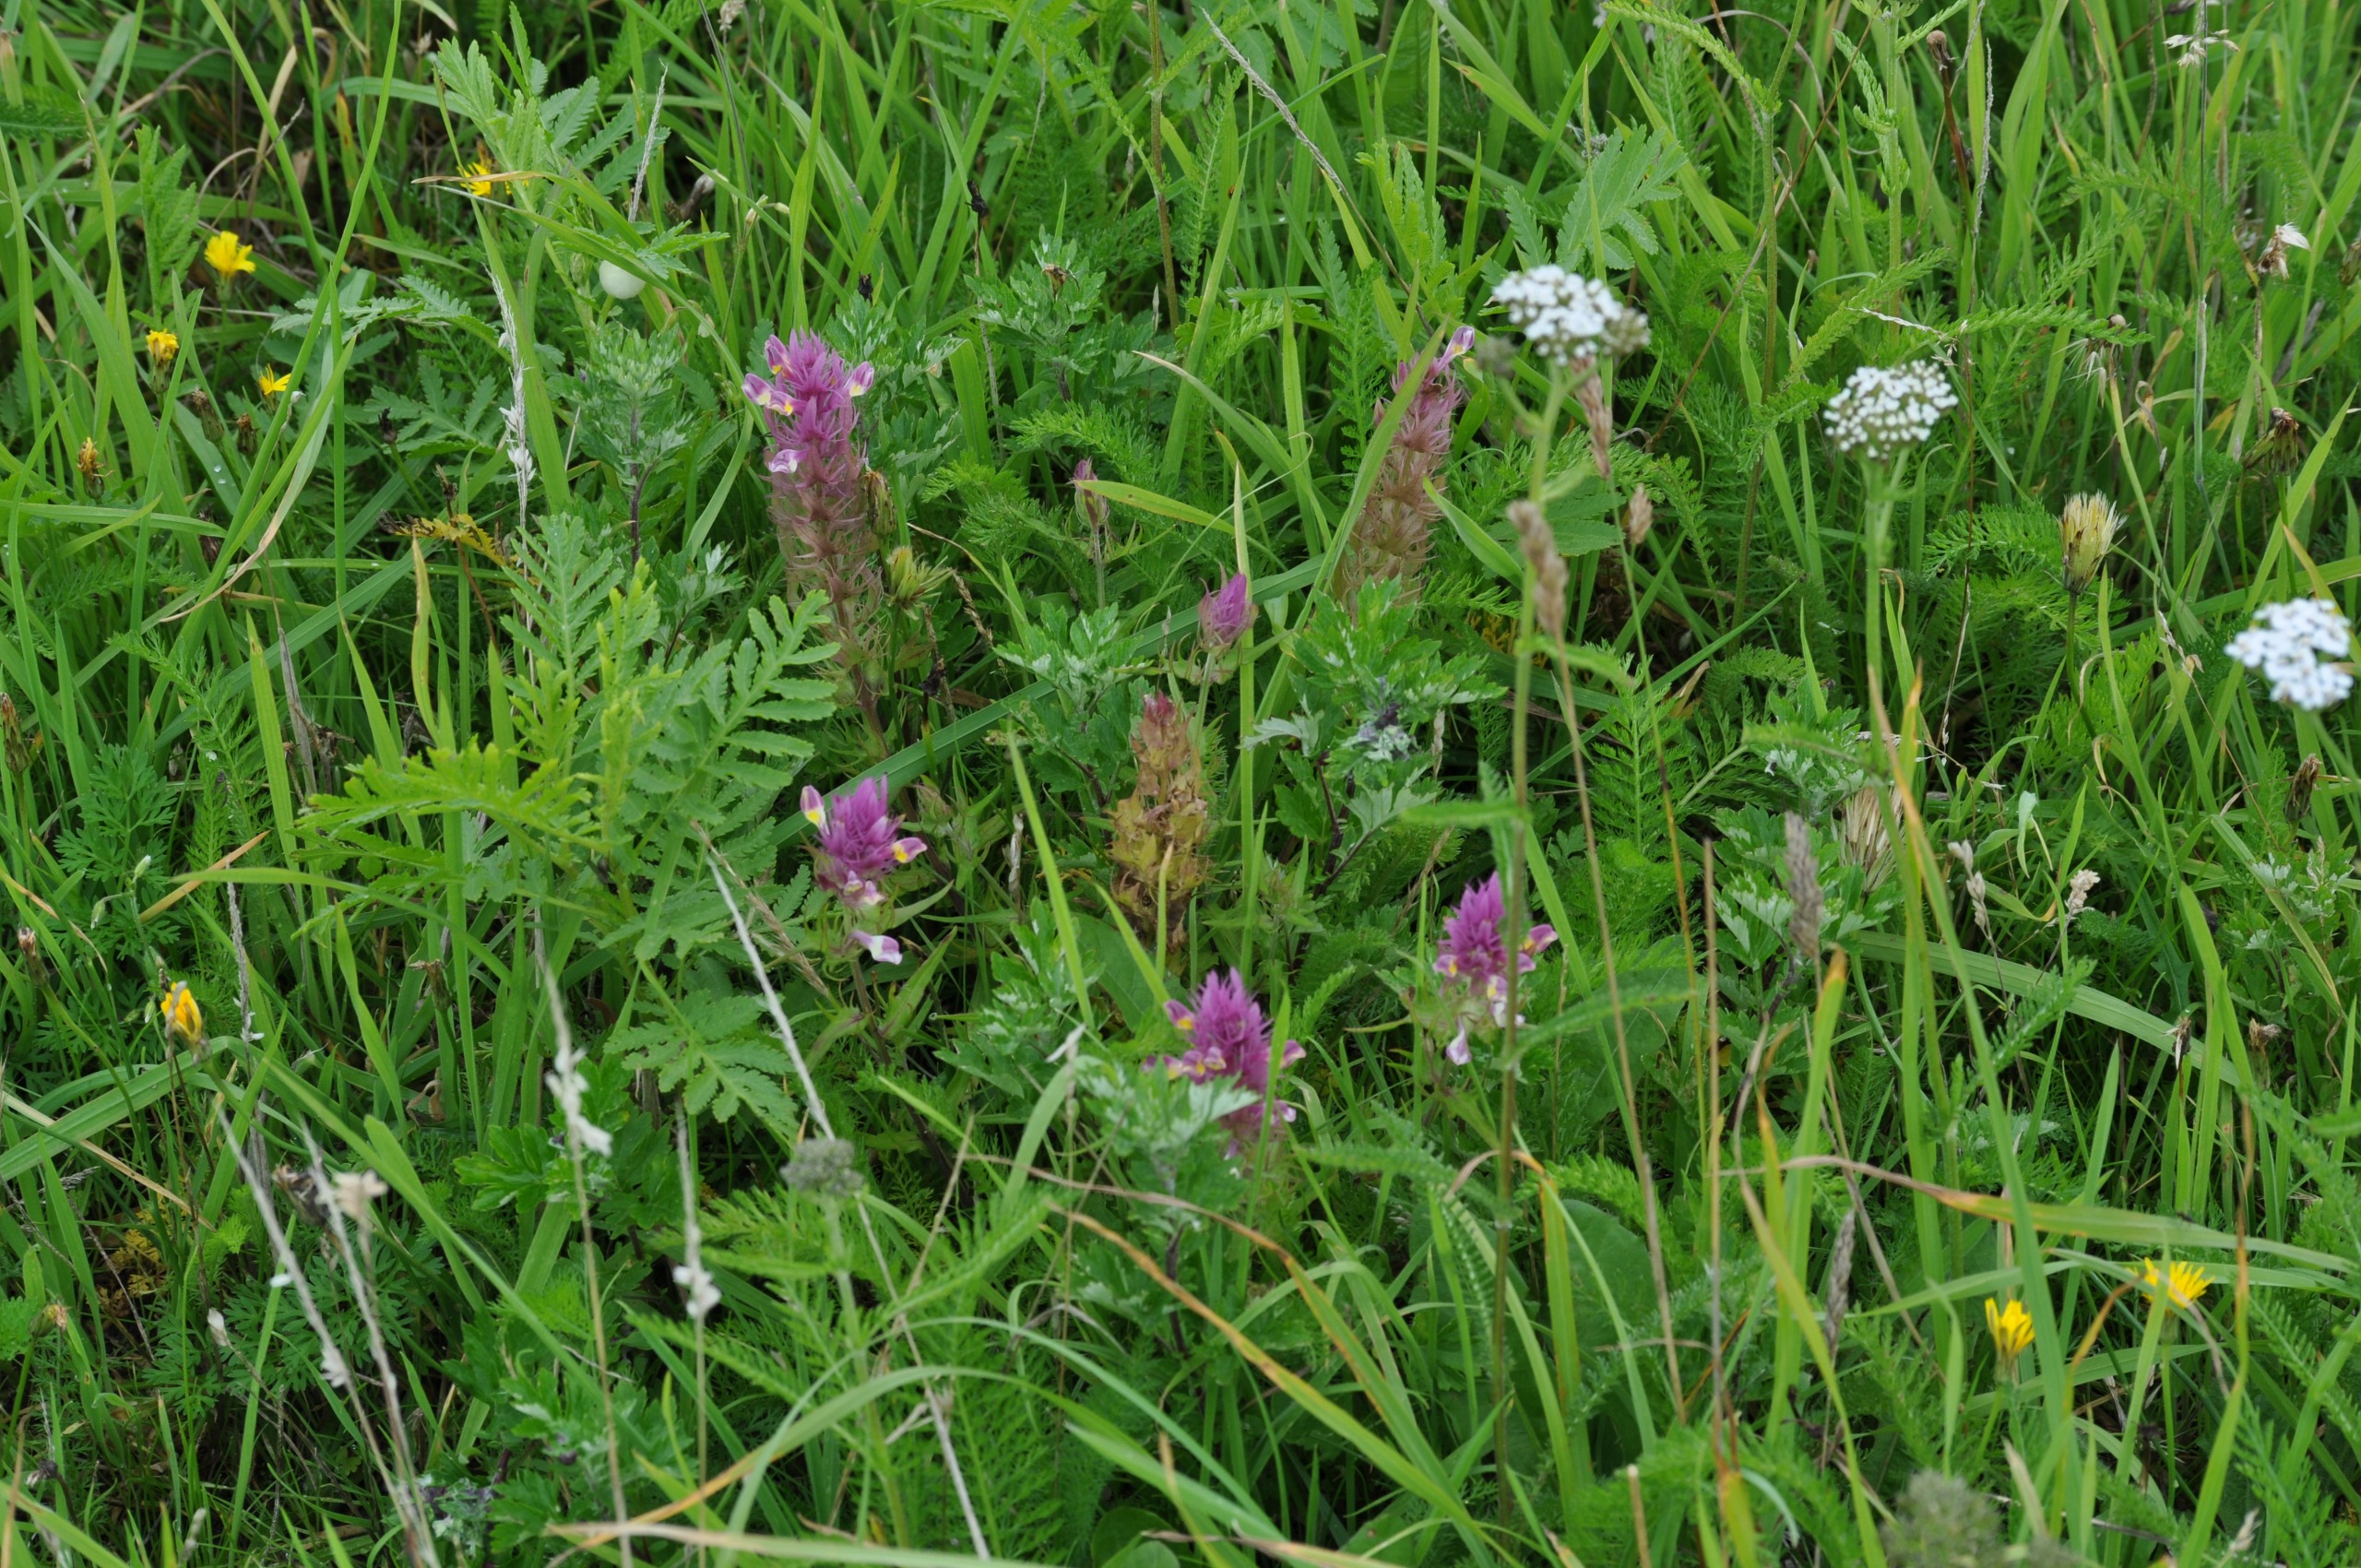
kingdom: Plantae
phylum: Tracheophyta
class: Magnoliopsida
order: Lamiales
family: Orobanchaceae
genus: Melampyrum
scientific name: Melampyrum arvense
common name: Ager-kohvede
